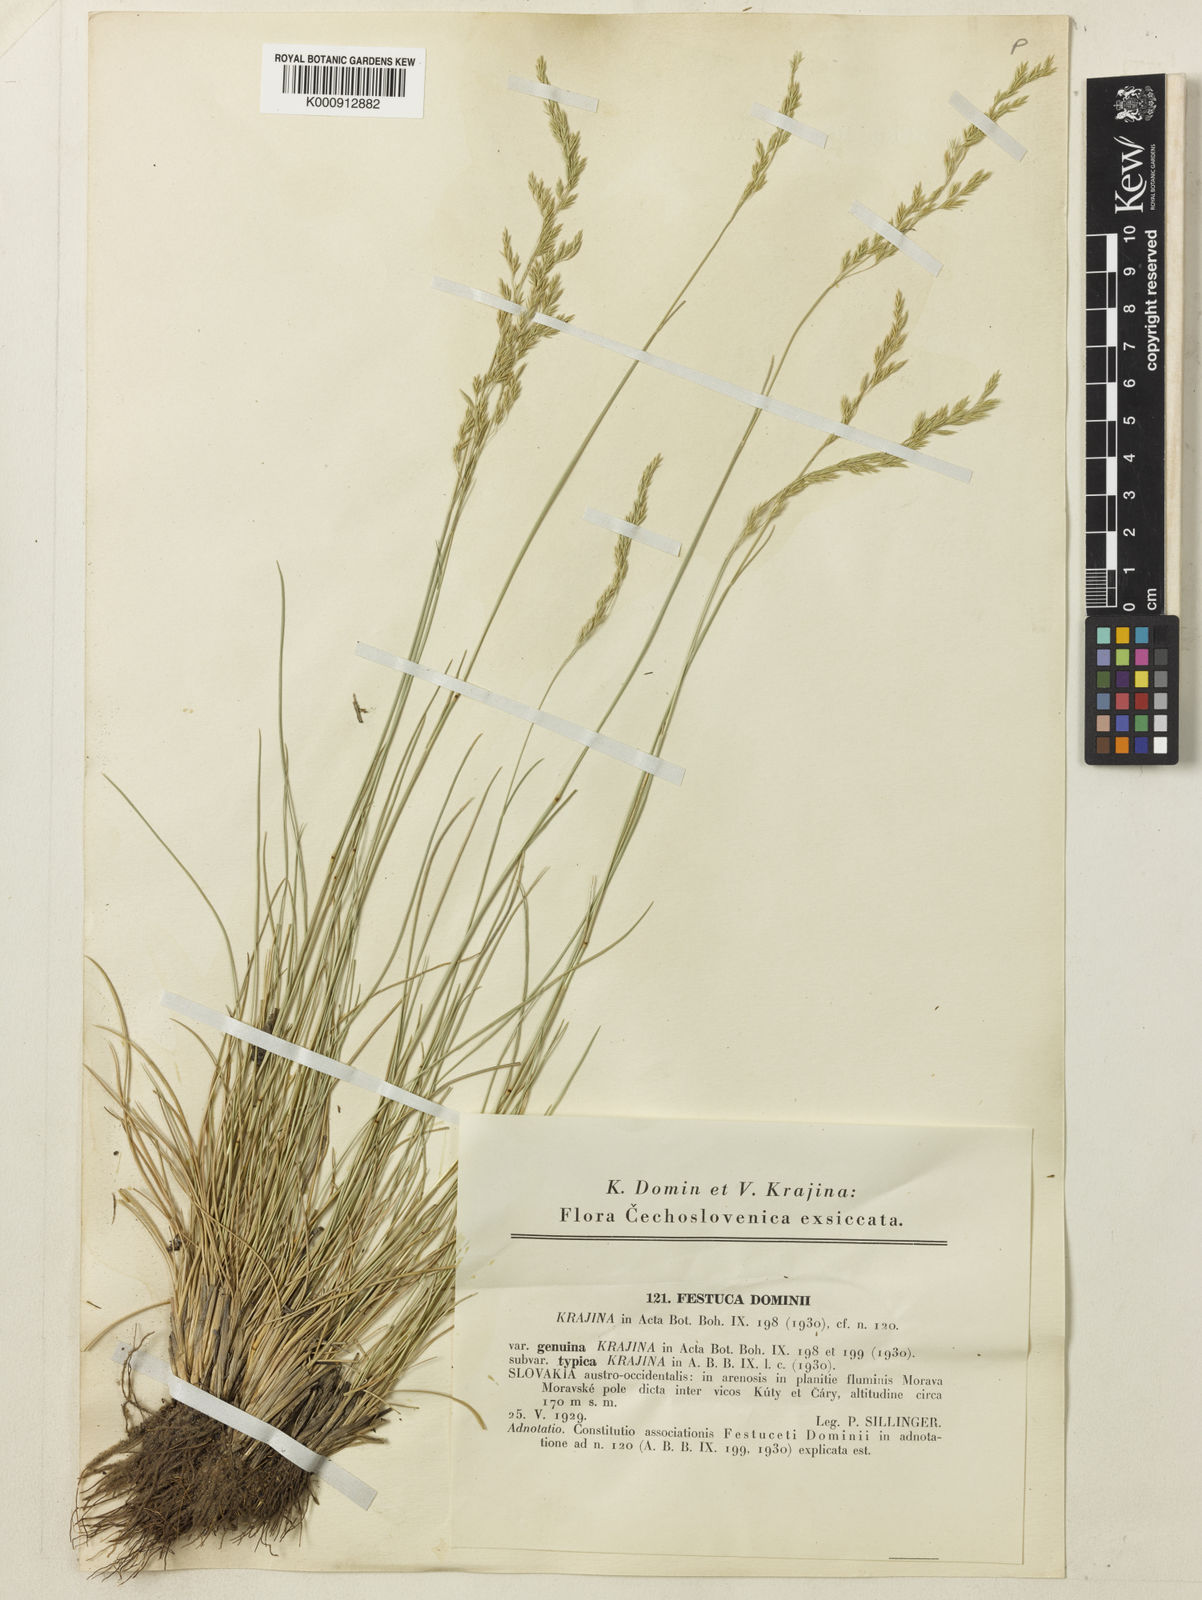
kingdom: Plantae
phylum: Tracheophyta
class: Liliopsida
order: Poales
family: Poaceae
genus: Festuca
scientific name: Festuca versicolor
